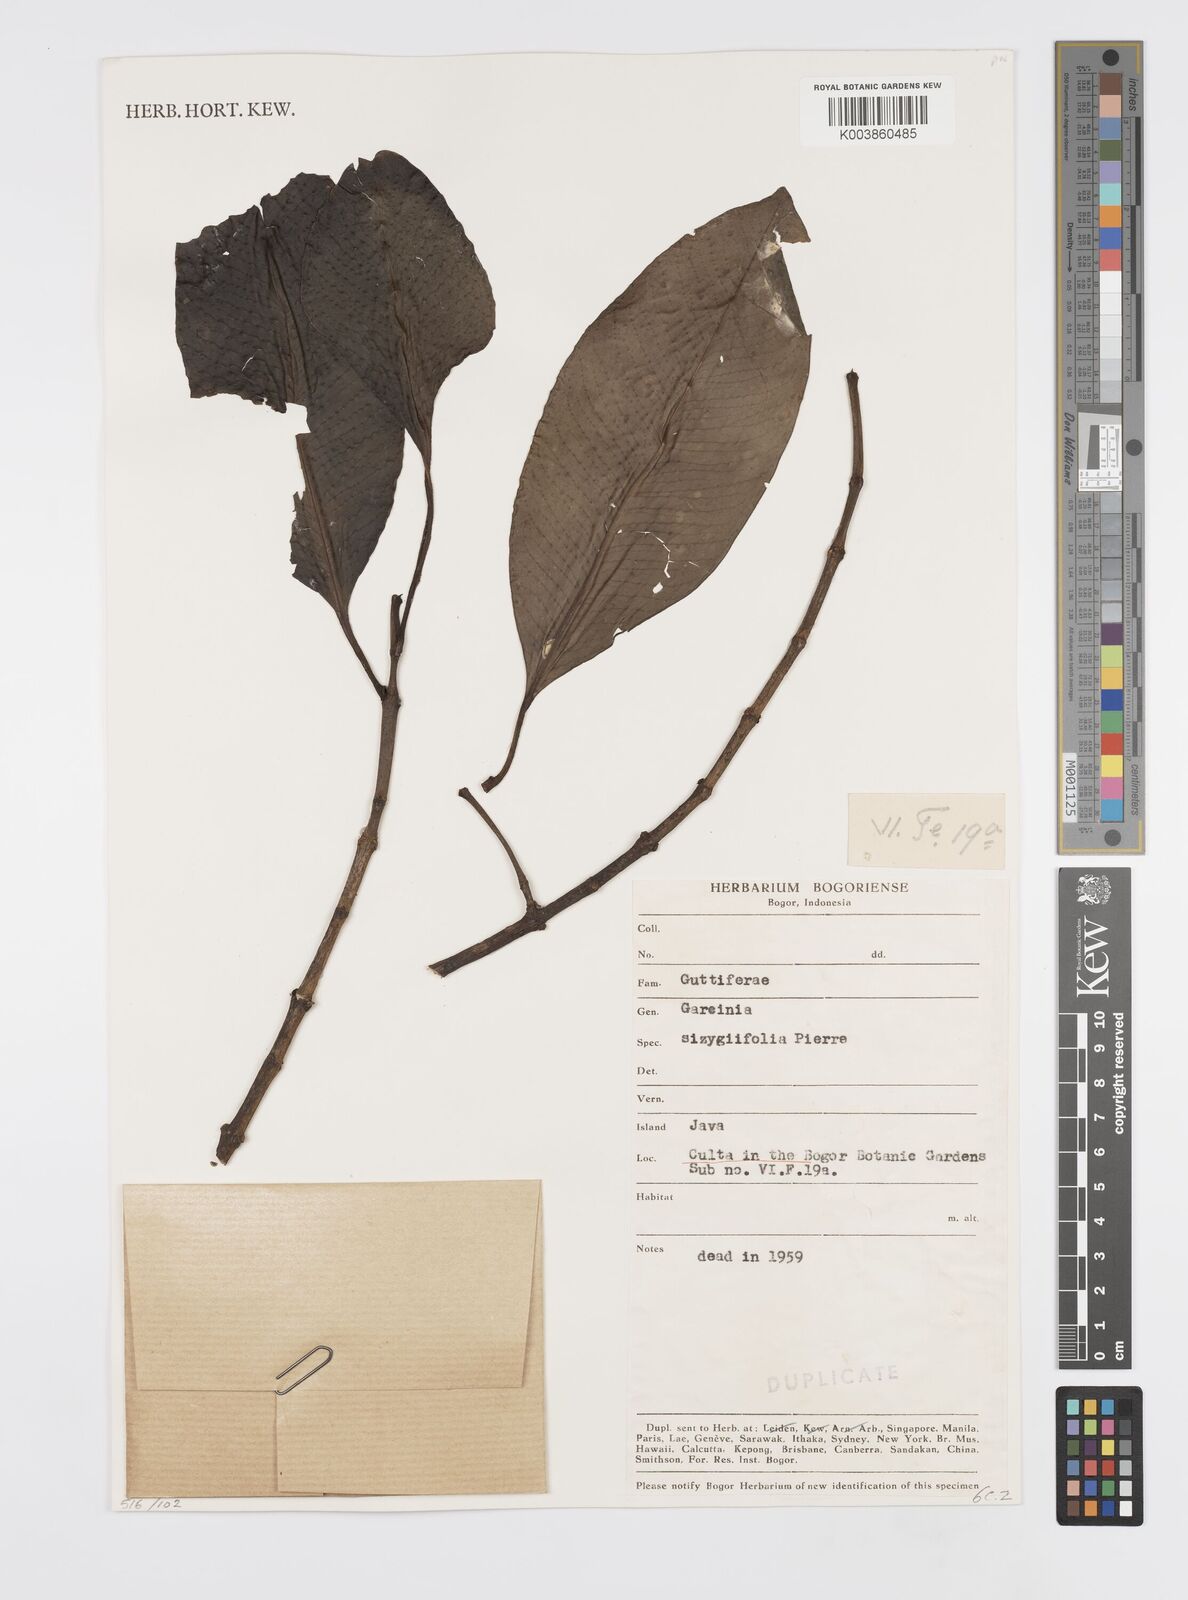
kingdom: Plantae
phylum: Tracheophyta
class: Magnoliopsida
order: Malpighiales
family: Clusiaceae
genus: Garcinia
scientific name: Garcinia sizygiifolia
